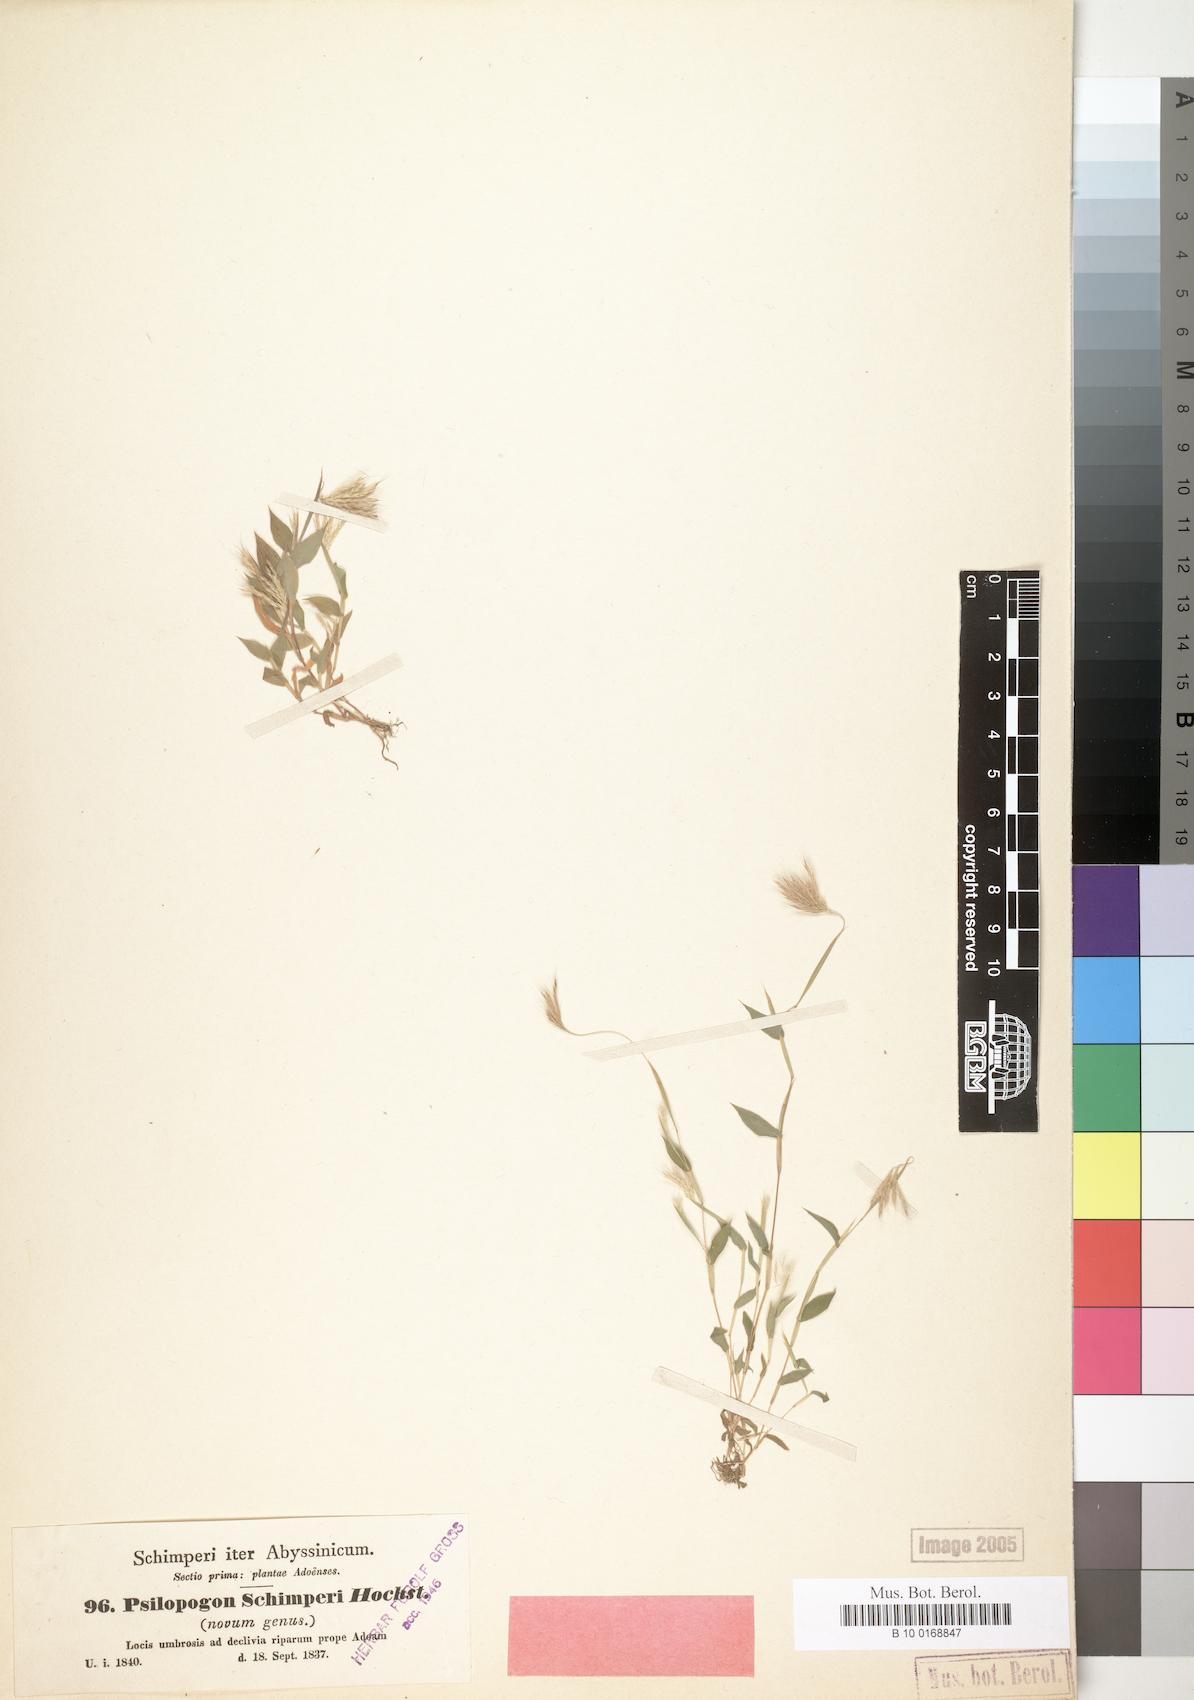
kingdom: Plantae
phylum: Tracheophyta
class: Liliopsida
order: Poales
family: Poaceae
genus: Arthraxon
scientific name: Arthraxon hispidus
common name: Small carpgrass
